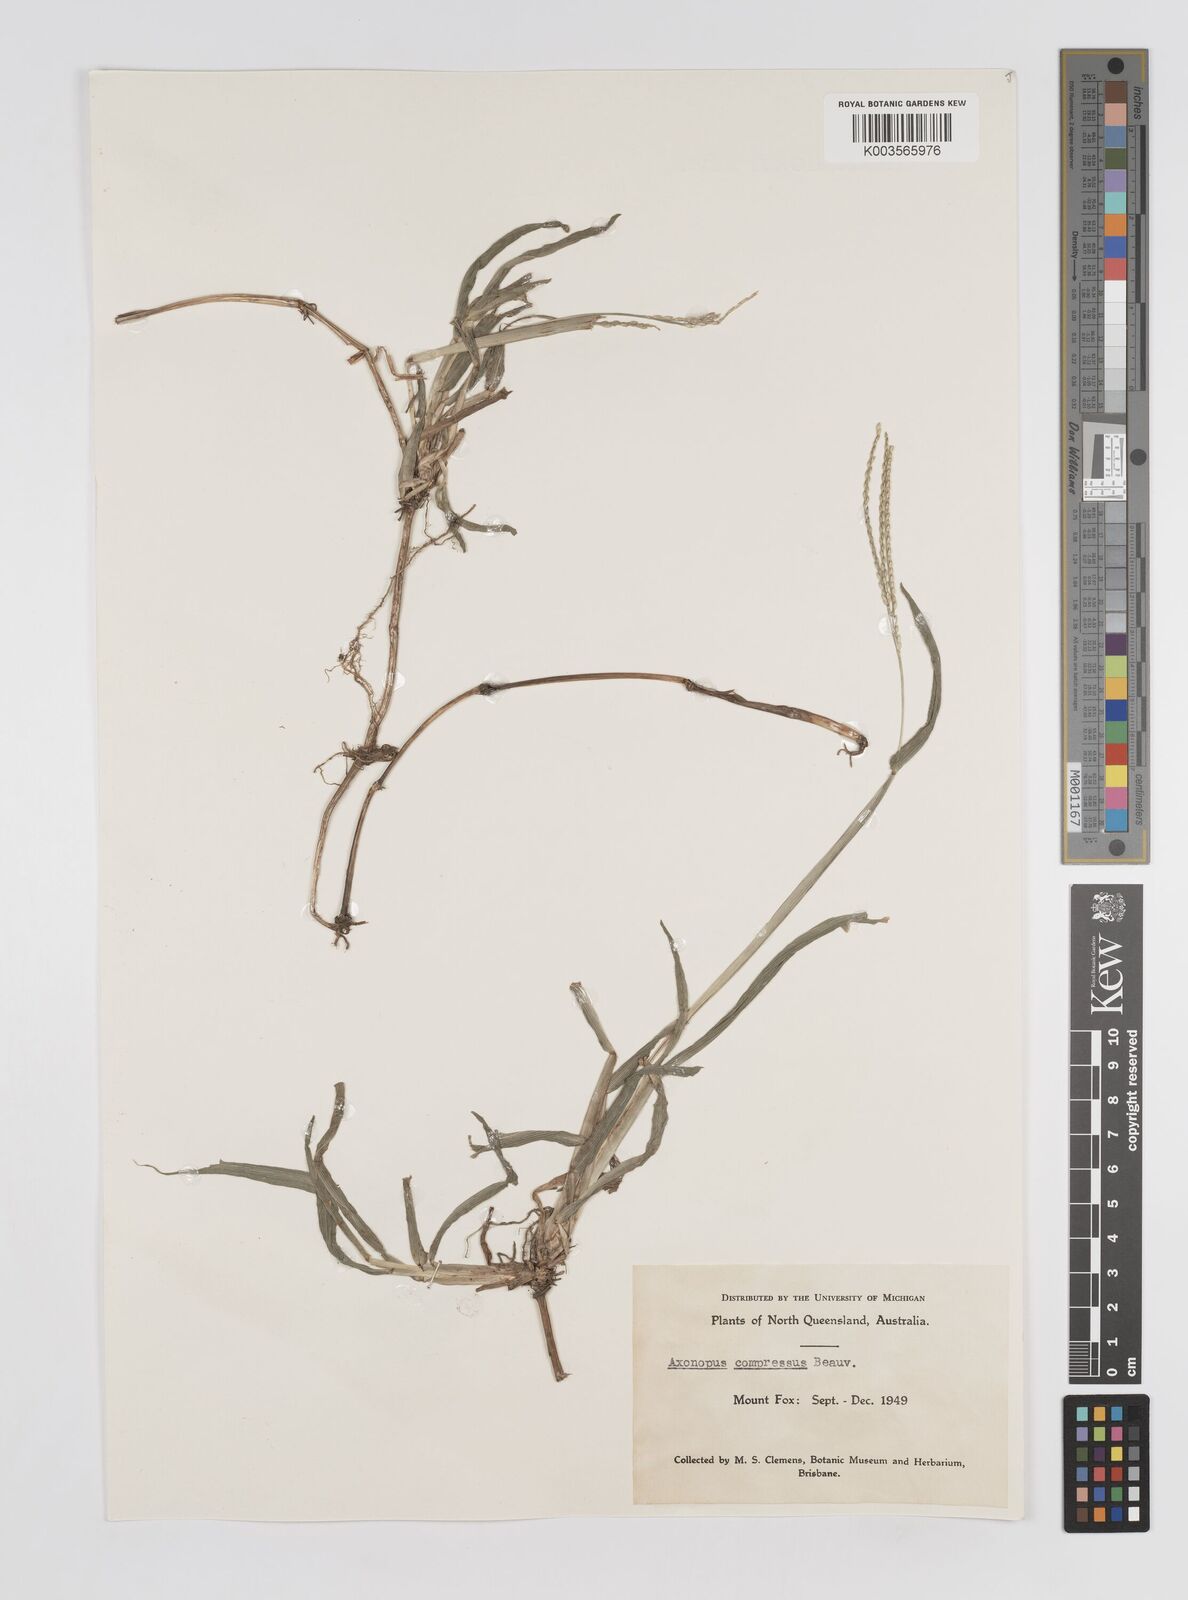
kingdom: Plantae
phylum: Tracheophyta
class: Liliopsida
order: Poales
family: Poaceae
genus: Axonopus
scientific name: Axonopus compressus
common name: American carpet grass
